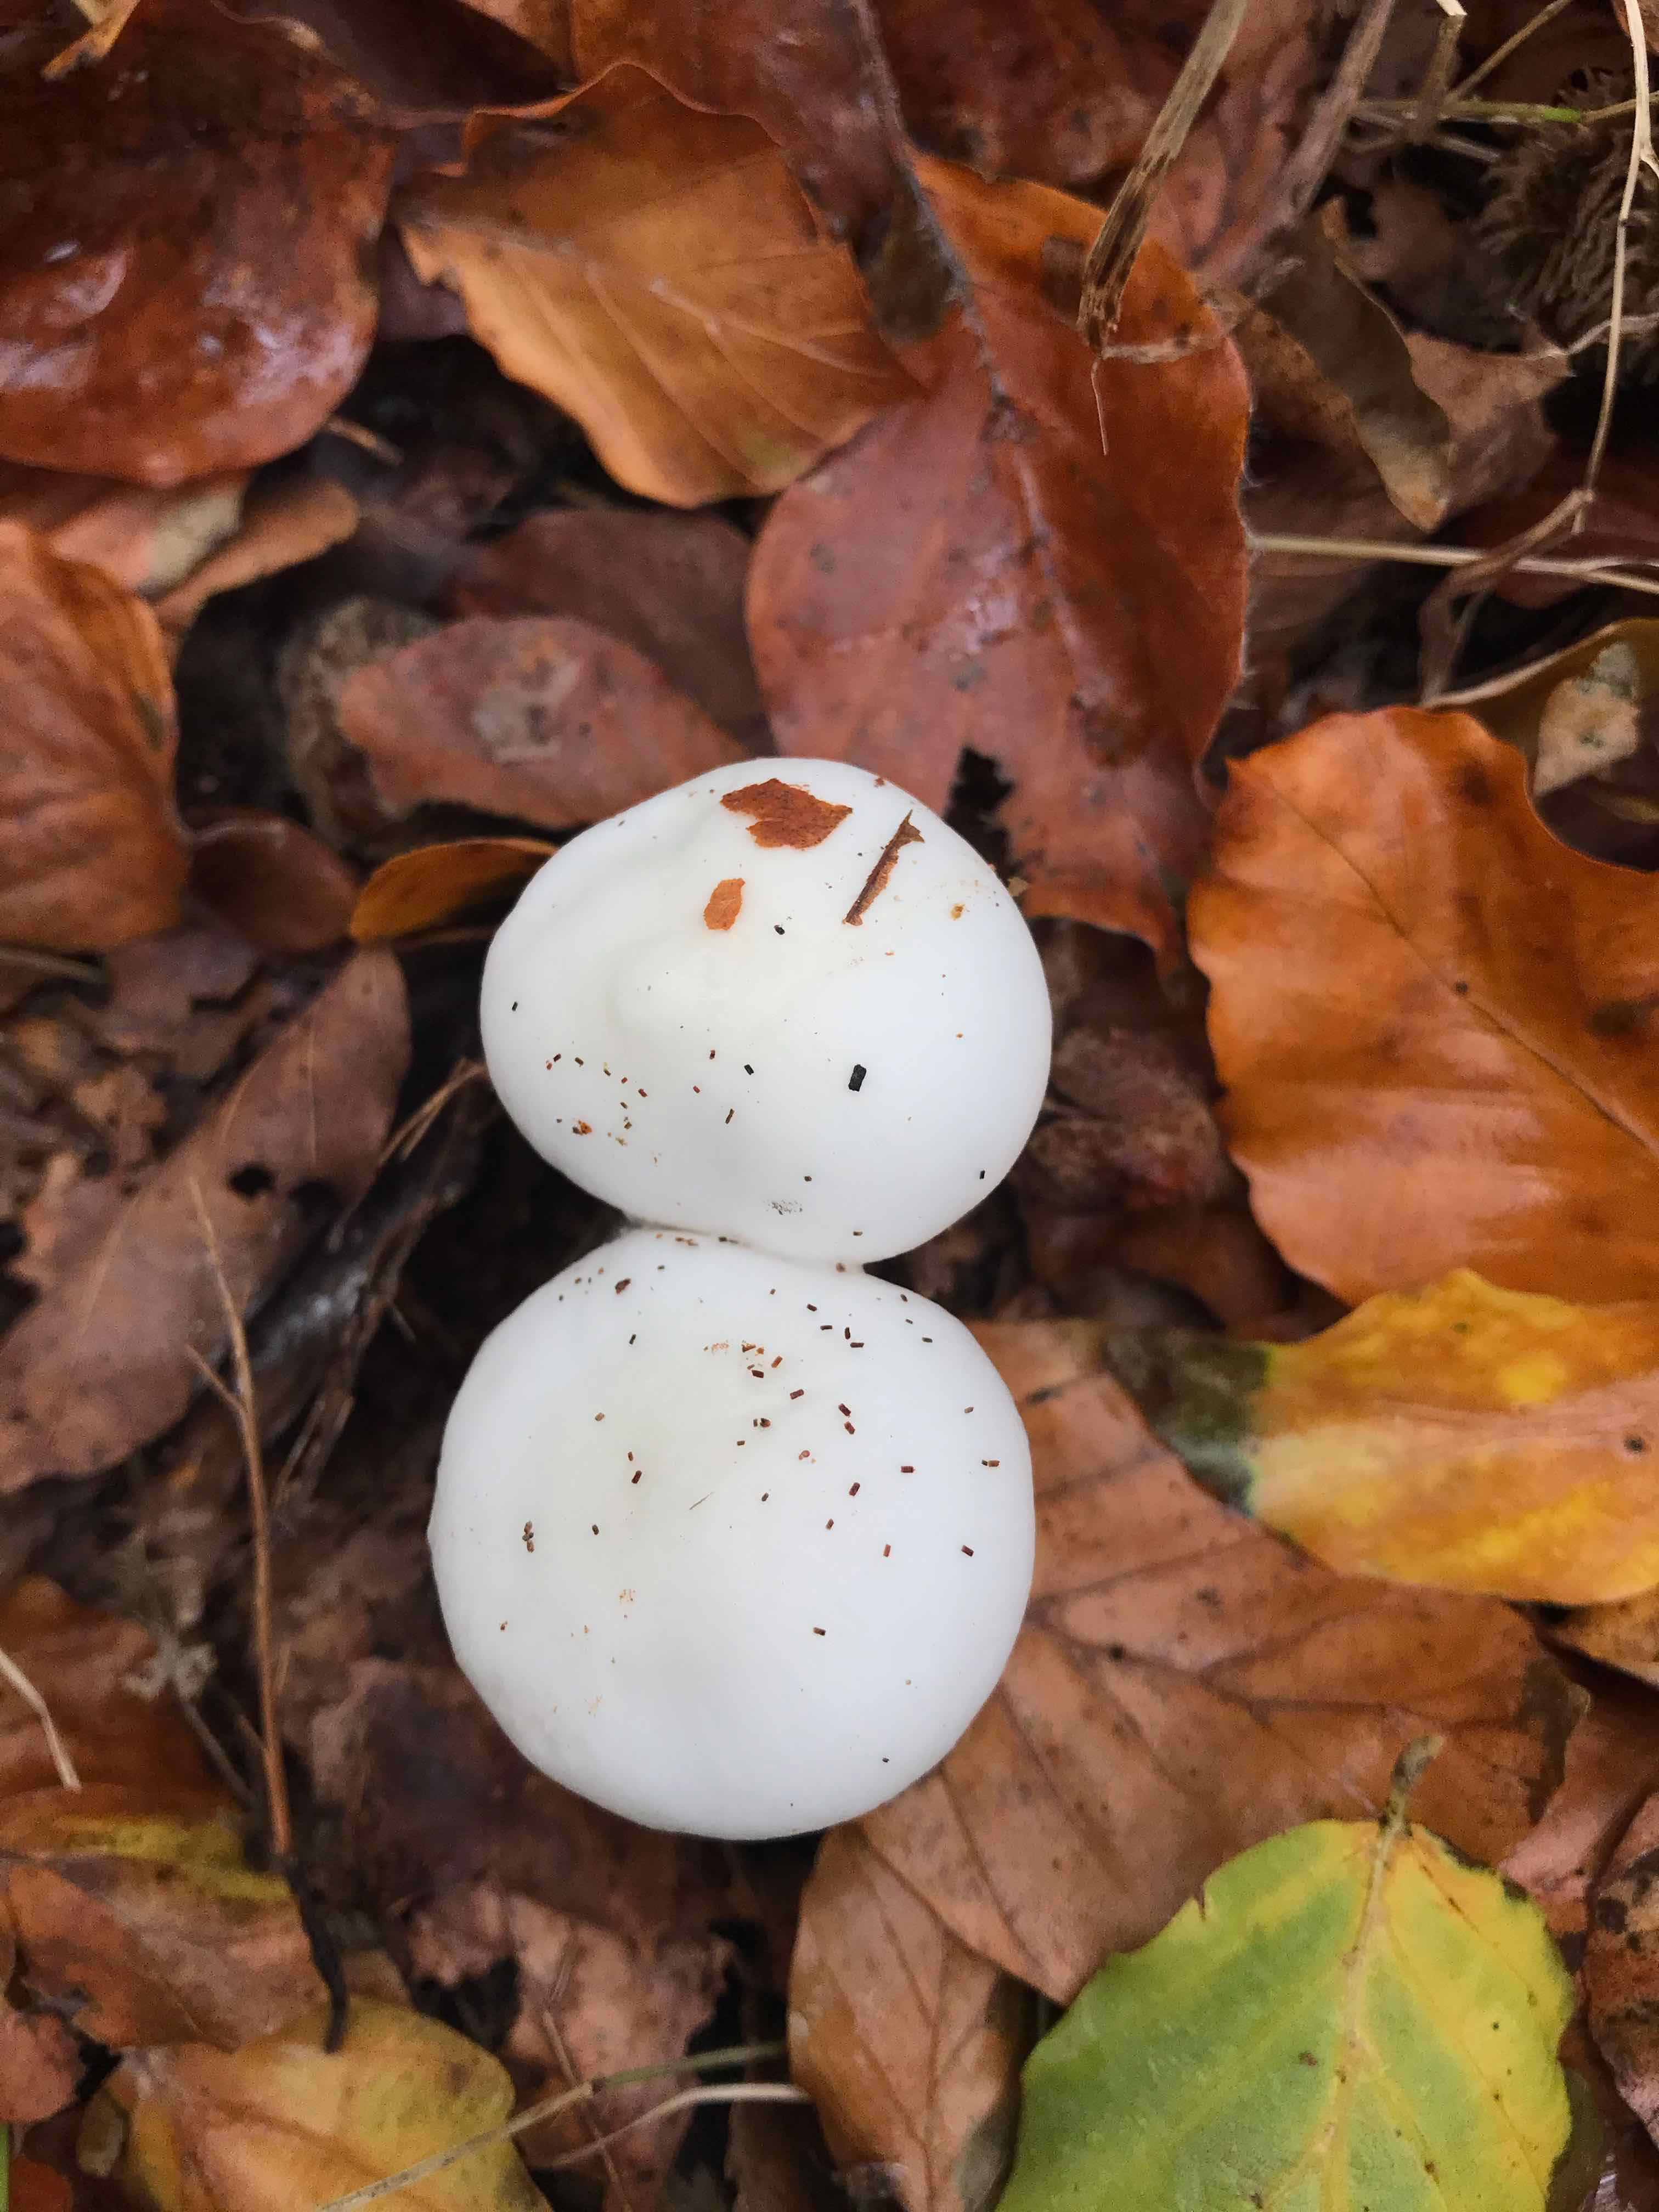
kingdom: Fungi
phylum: Basidiomycota
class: Agaricomycetes
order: Agaricales
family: Hygrophoraceae
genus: Hygrophorus
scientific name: Hygrophorus
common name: sneglehat
